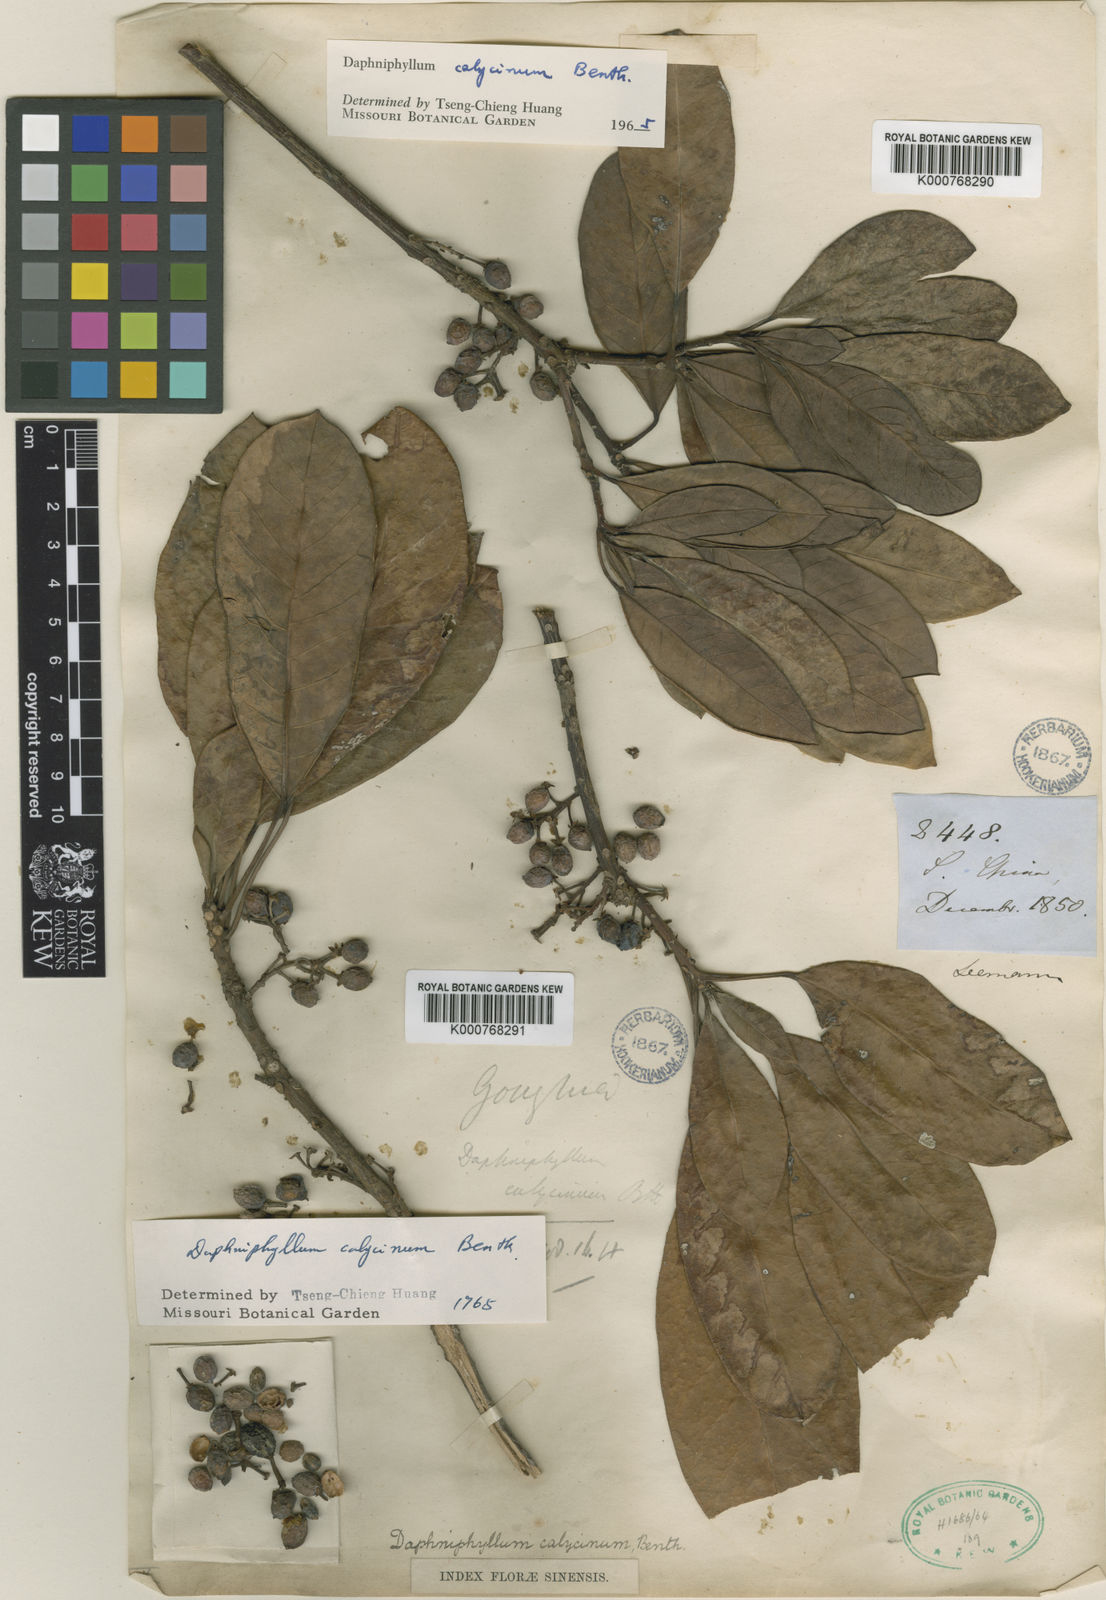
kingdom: Plantae
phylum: Tracheophyta
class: Magnoliopsida
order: Saxifragales
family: Daphniphyllaceae
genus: Daphniphyllum
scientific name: Daphniphyllum calycinum
